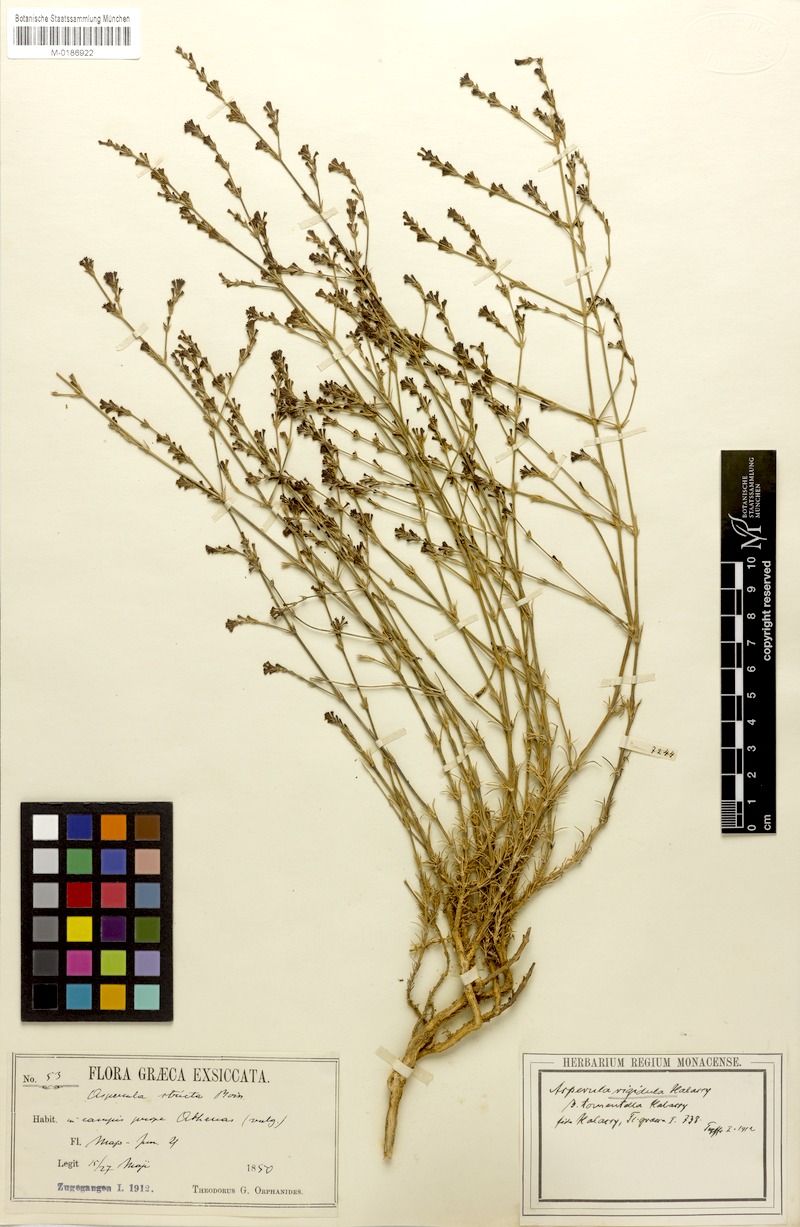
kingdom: Plantae
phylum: Tracheophyta
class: Magnoliopsida
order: Gentianales
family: Rubiaceae
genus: Cynanchica
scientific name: Cynanchica rigidula
